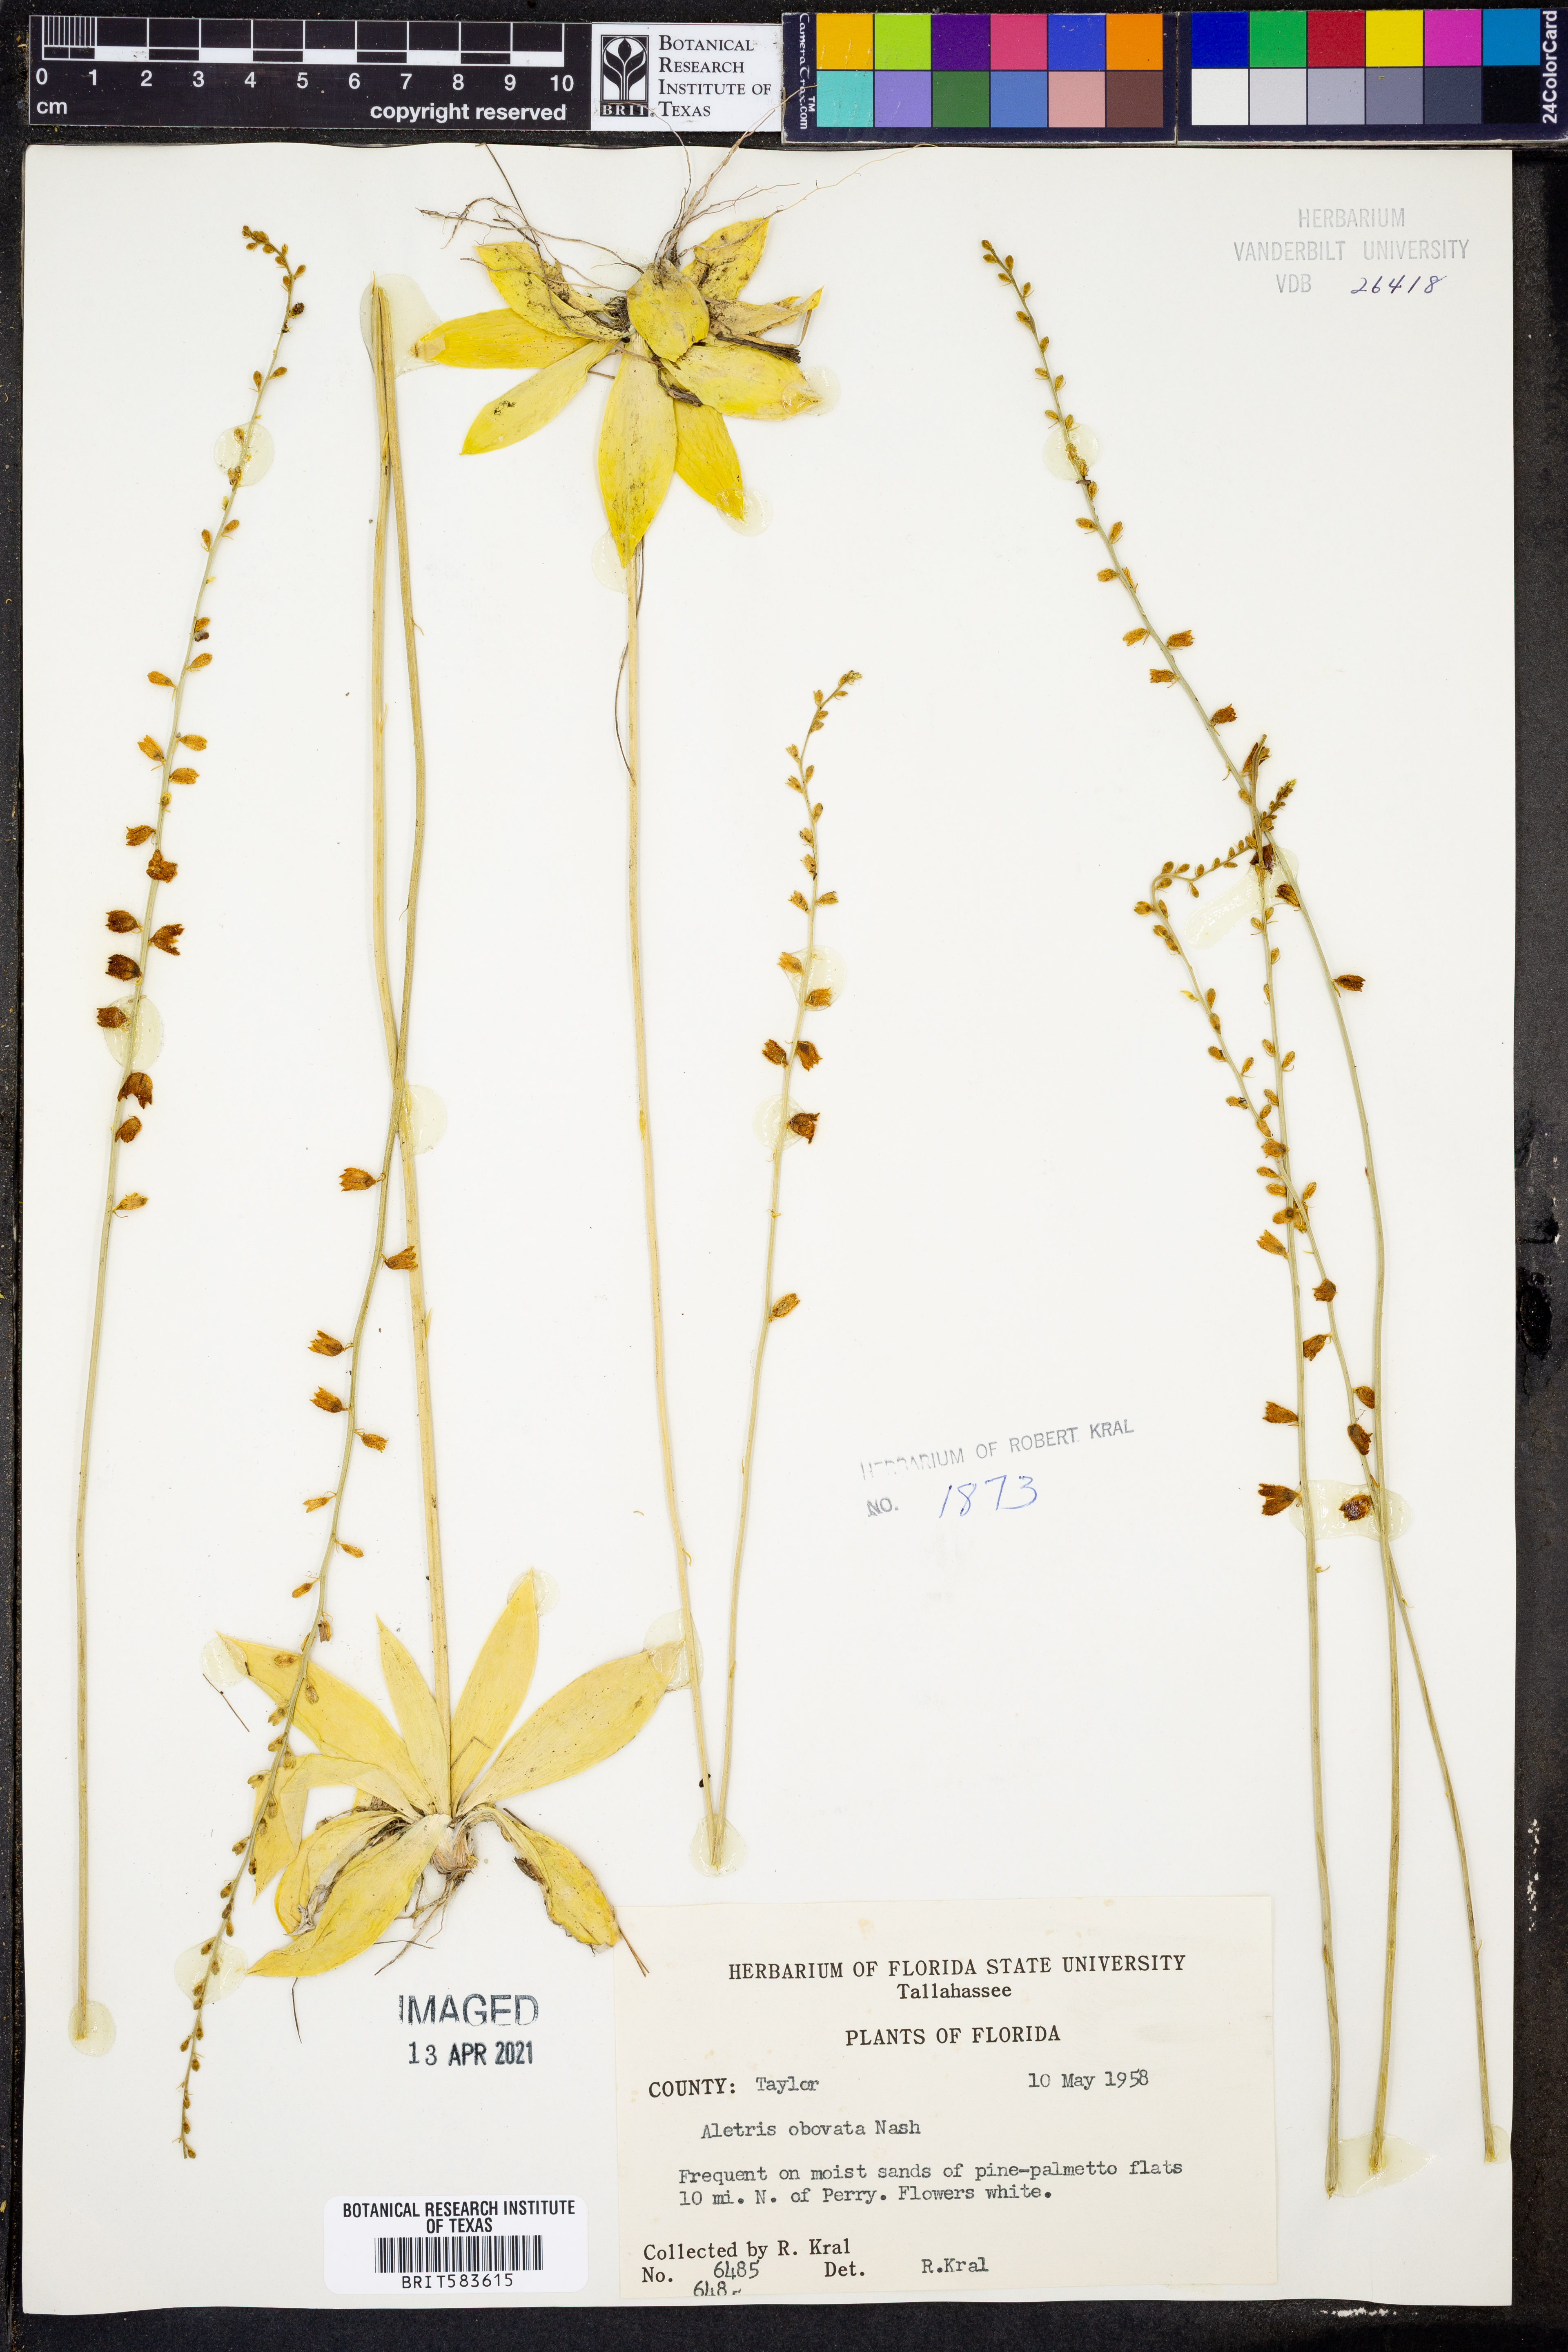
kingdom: Plantae
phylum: Tracheophyta
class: Liliopsida
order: Dioscoreales
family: Nartheciaceae
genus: Aletris
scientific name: Aletris obovata
